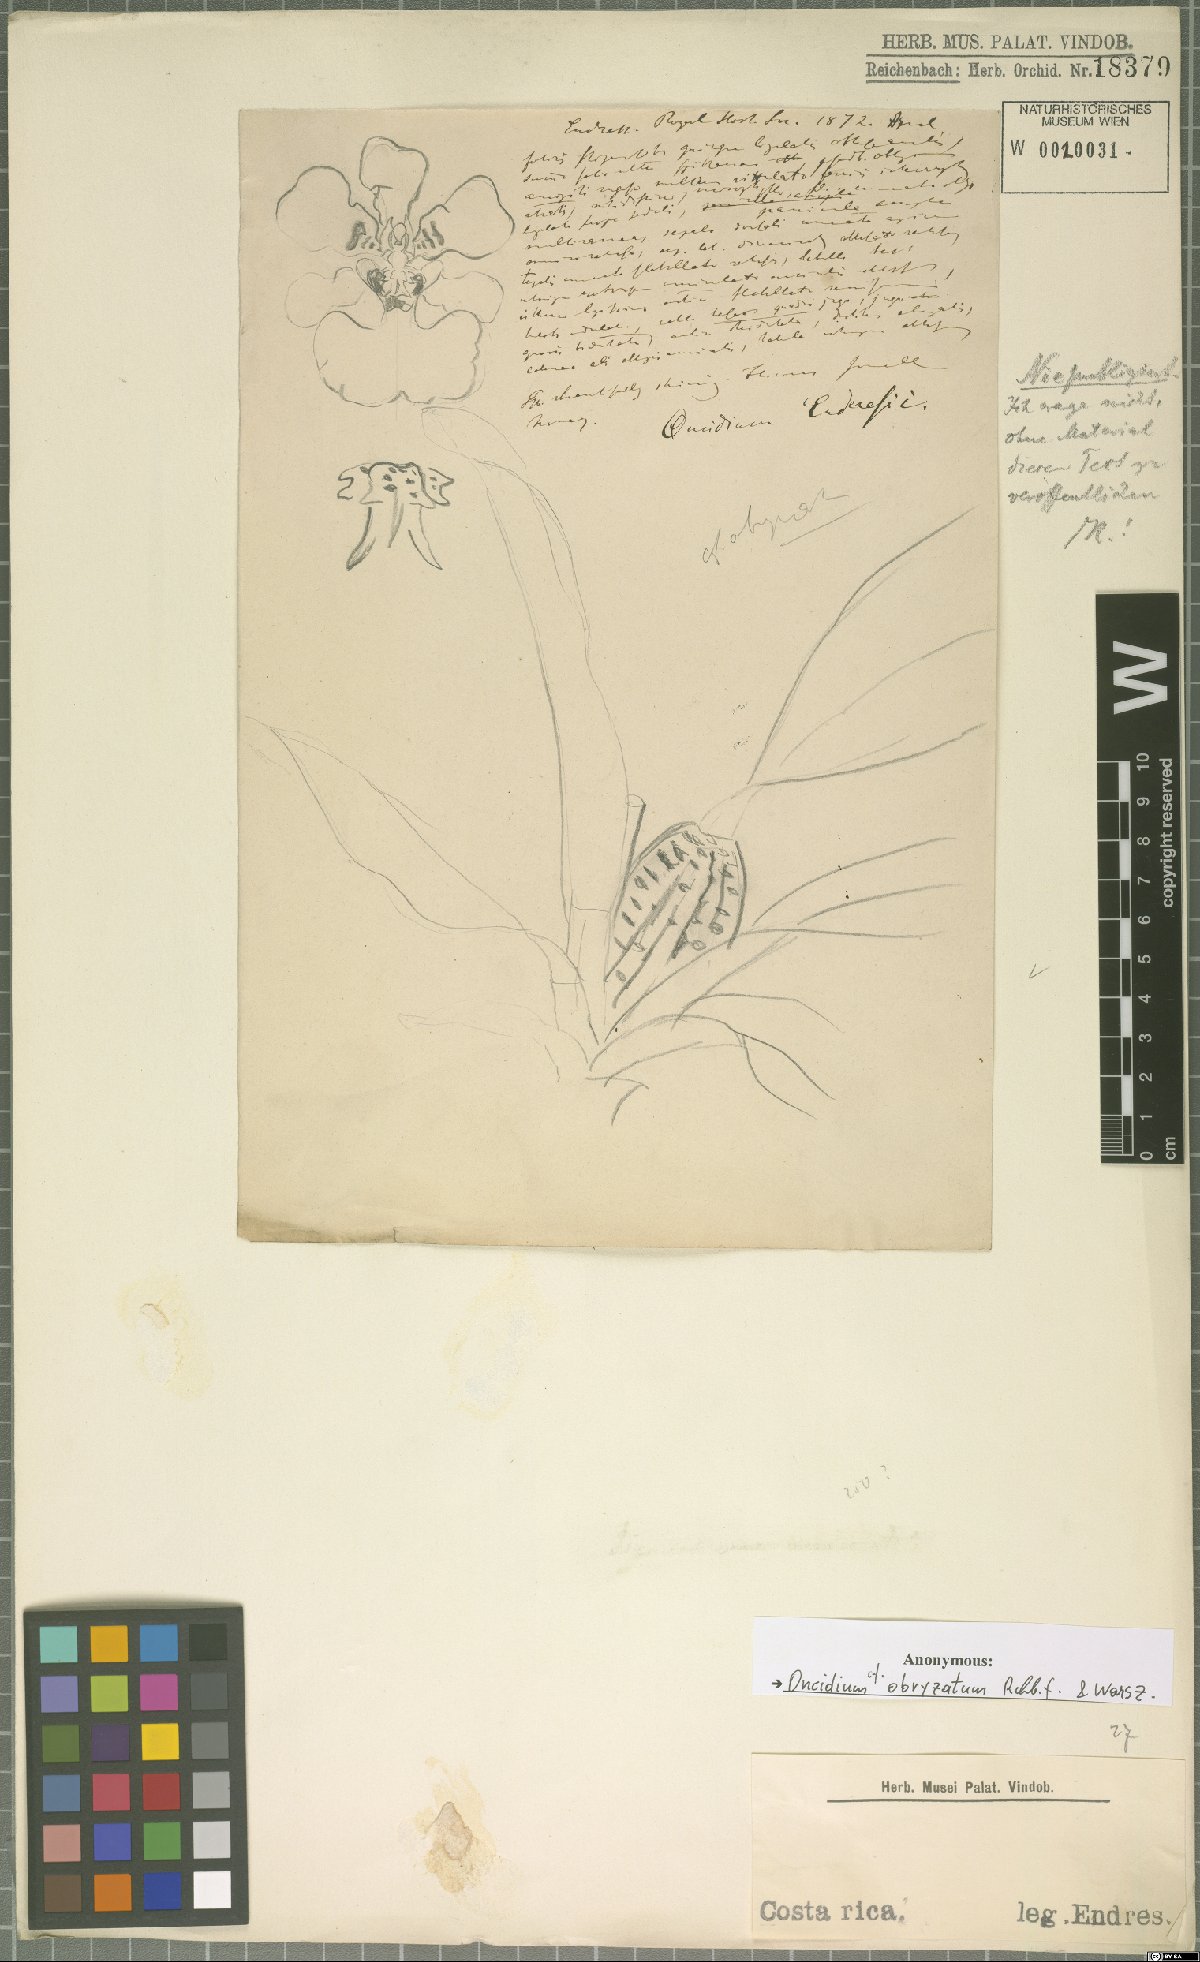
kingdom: Plantae
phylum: Tracheophyta
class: Liliopsida
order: Asparagales
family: Orchidaceae
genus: Oncidium
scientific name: Oncidium obryzatum
